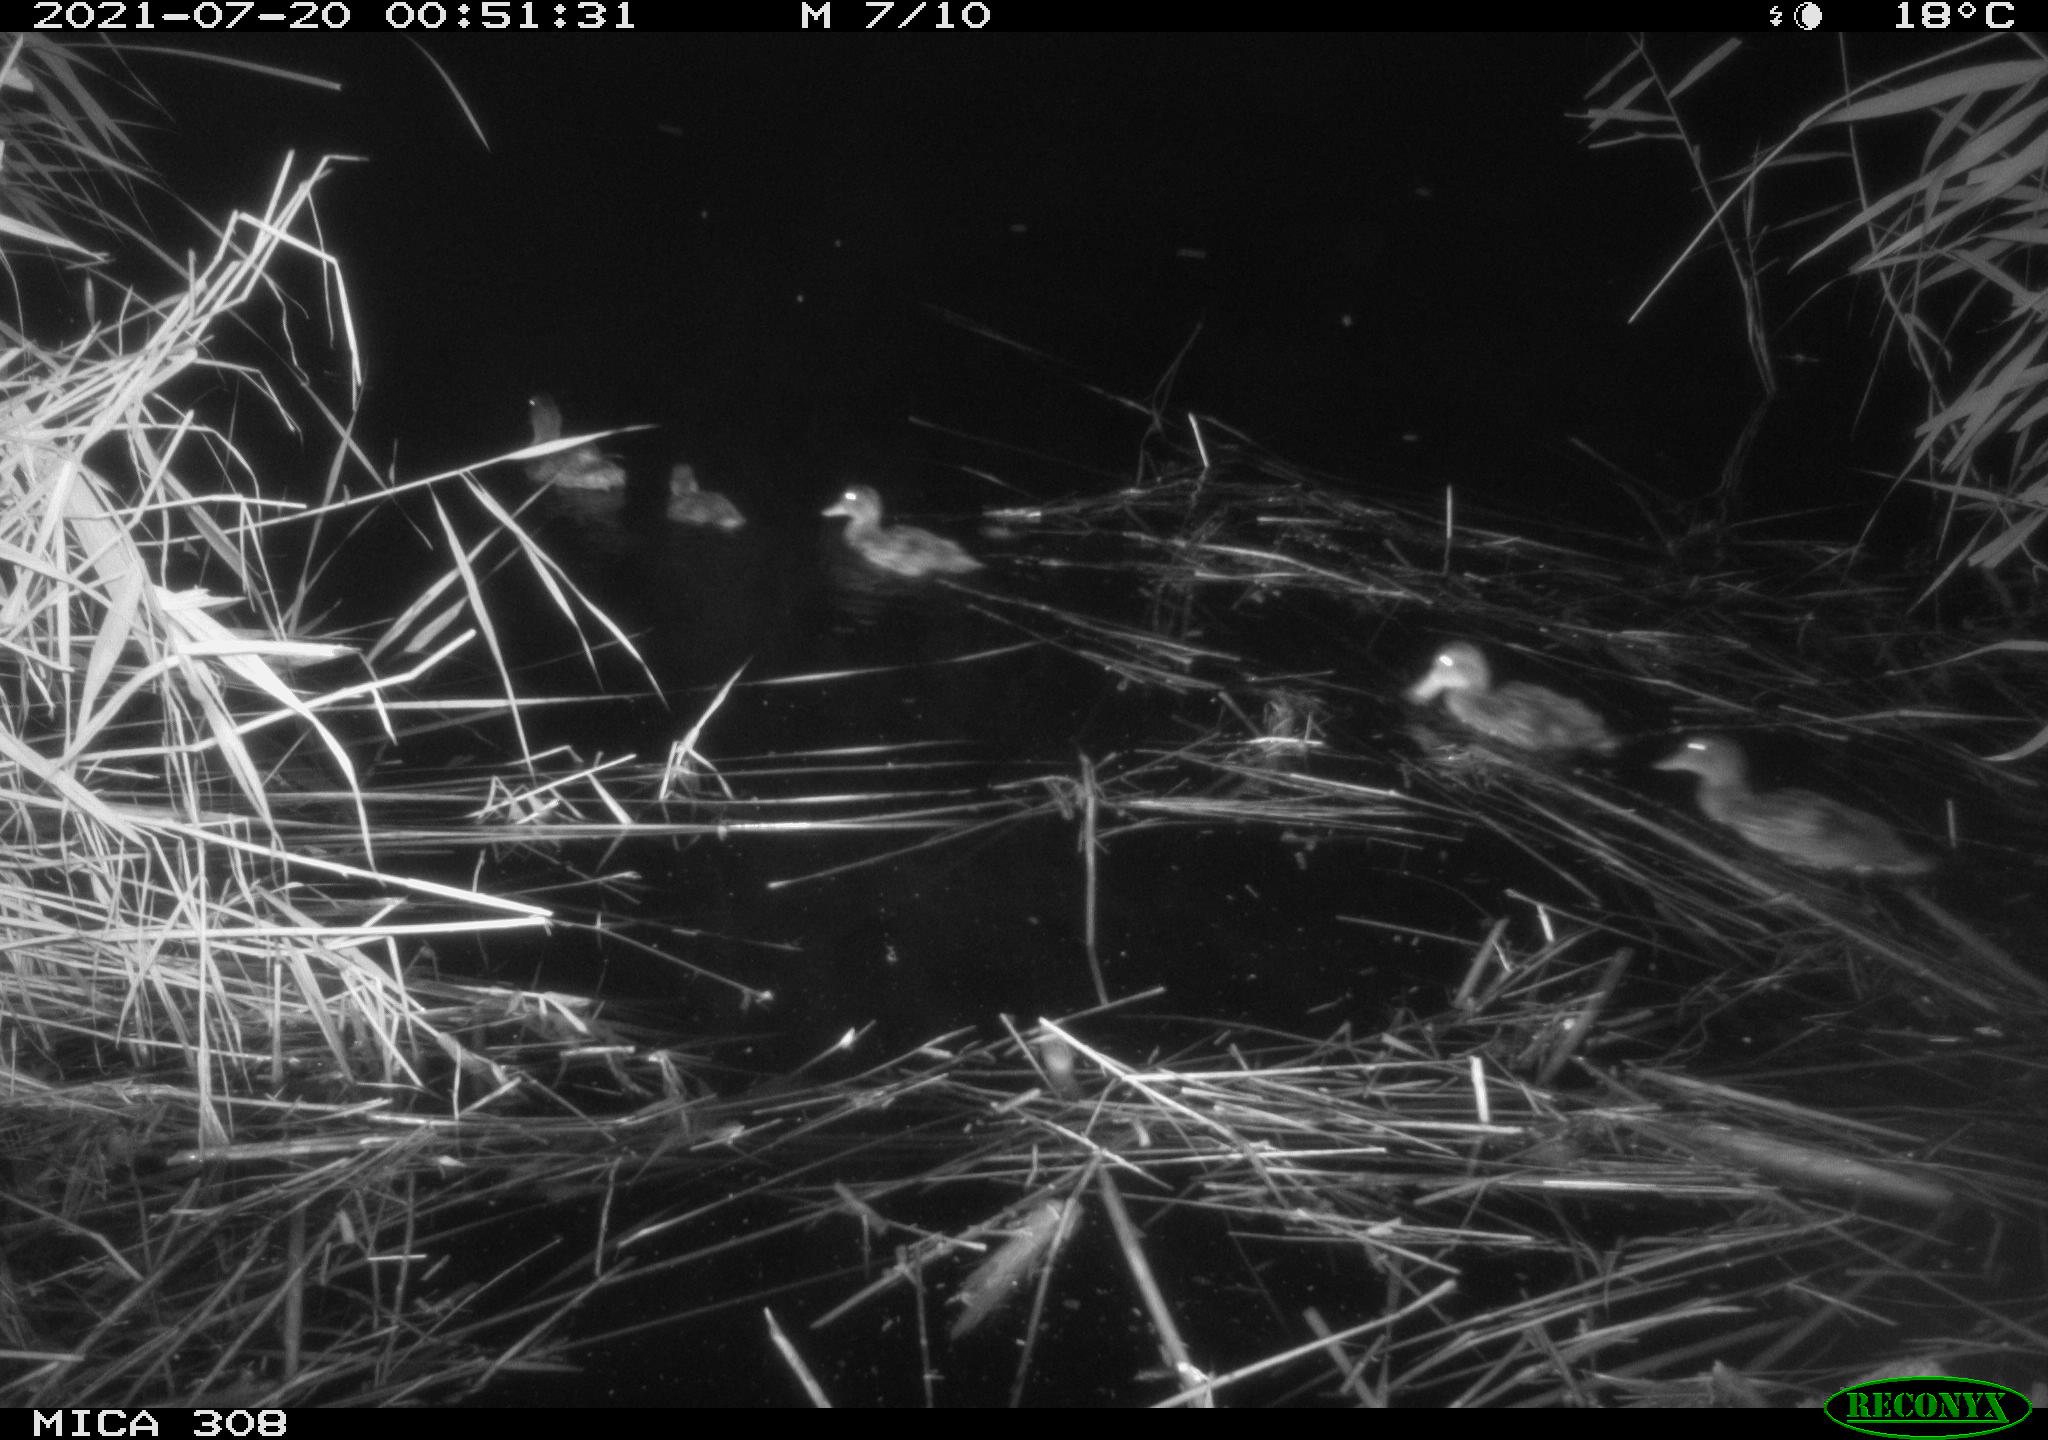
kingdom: Animalia
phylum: Chordata
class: Aves
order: Anseriformes
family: Anatidae
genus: Anas
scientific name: Anas platyrhynchos
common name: Mallard
